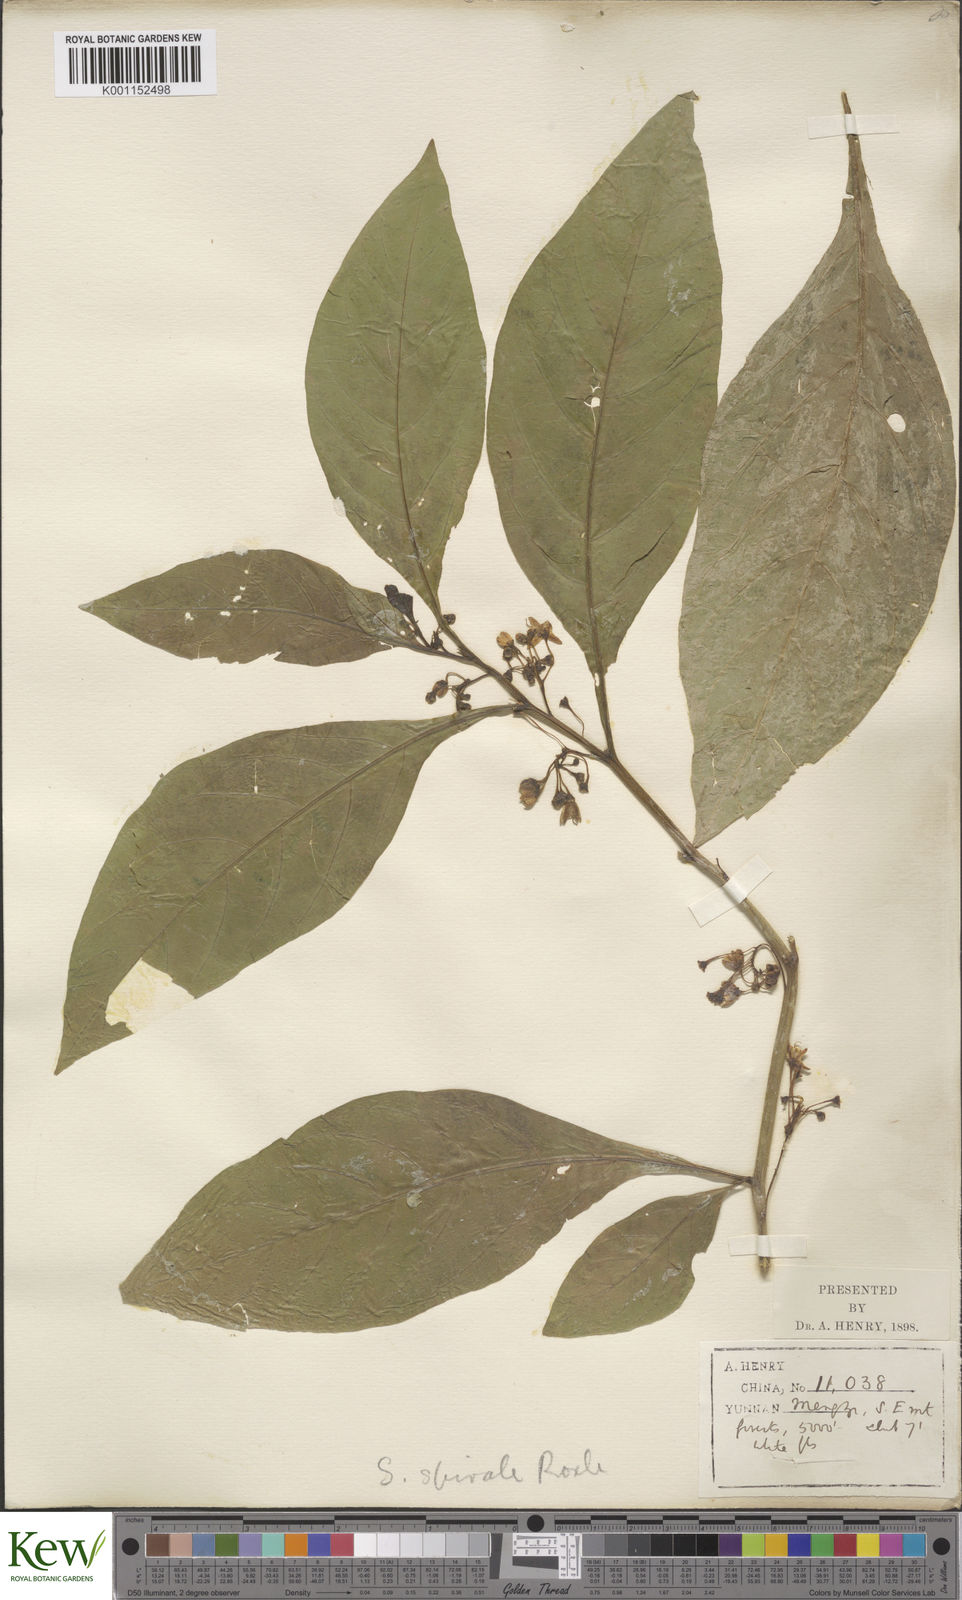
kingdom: Plantae
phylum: Tracheophyta
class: Magnoliopsida
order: Solanales
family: Solanaceae
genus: Solanum
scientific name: Solanum spirale
